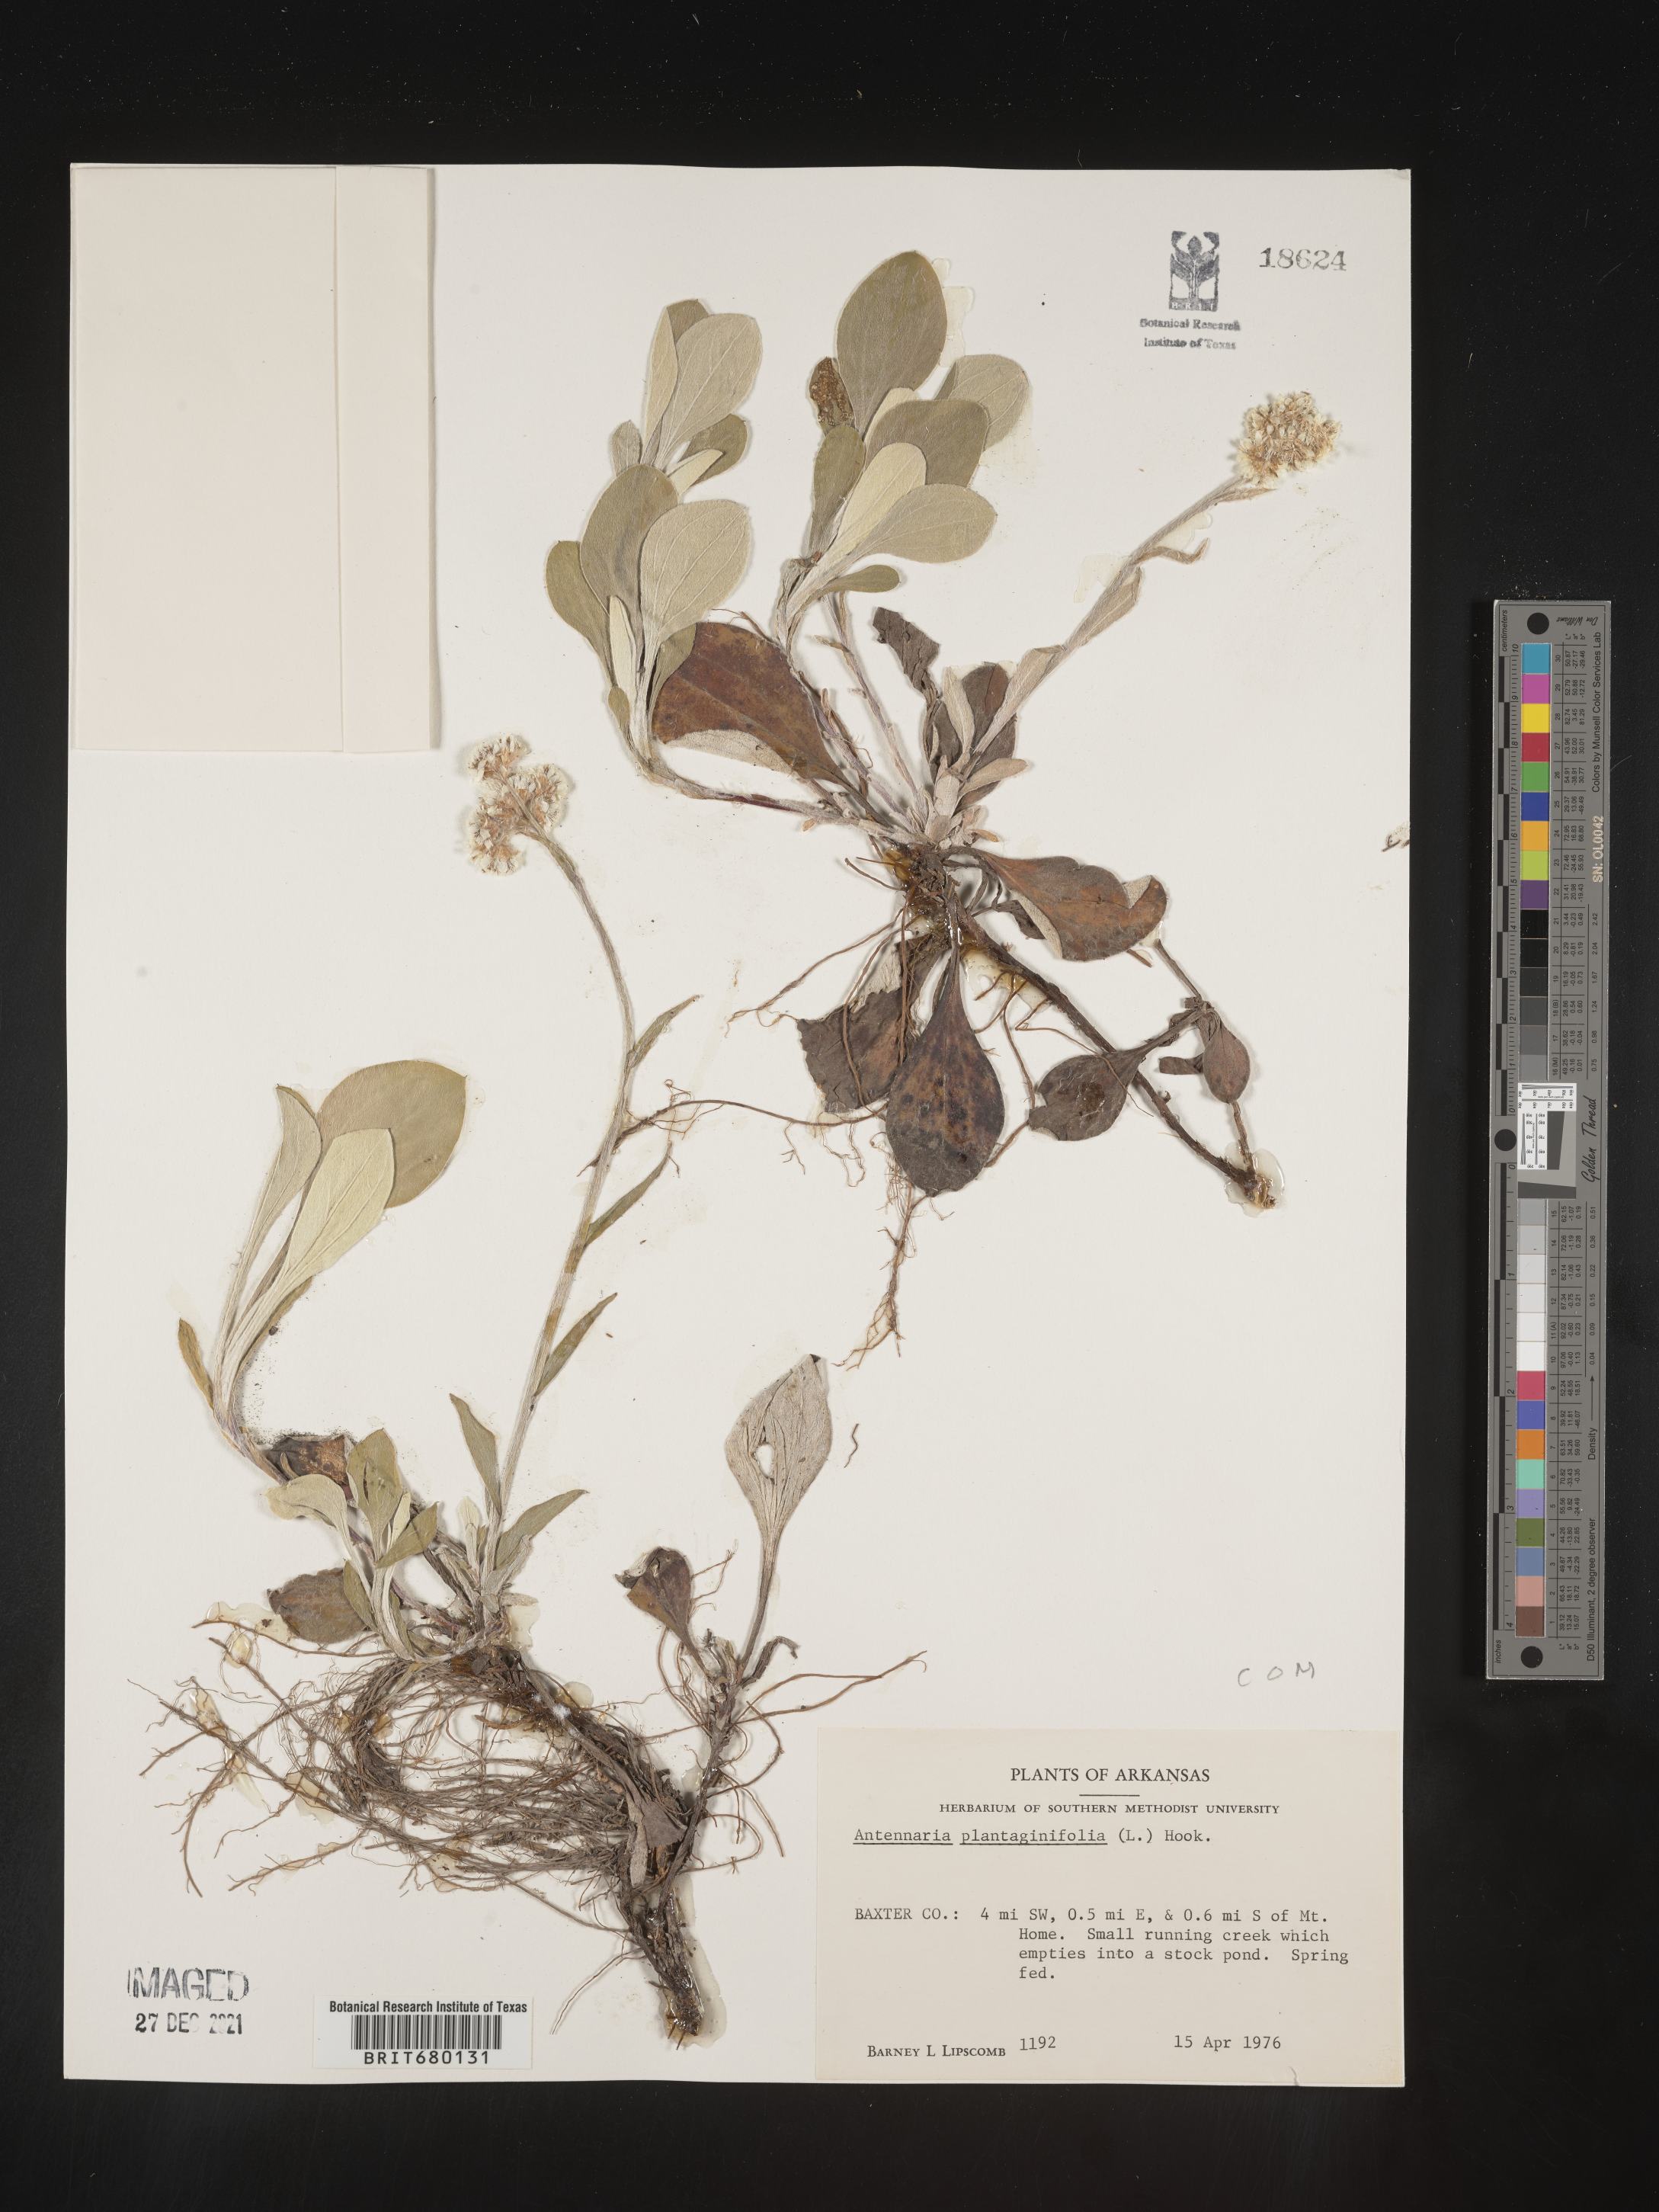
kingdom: Plantae
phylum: Tracheophyta
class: Magnoliopsida
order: Asterales
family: Asteraceae
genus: Antennaria
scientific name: Antennaria plantaginifolia
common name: Plantain-leaved pussytoes
